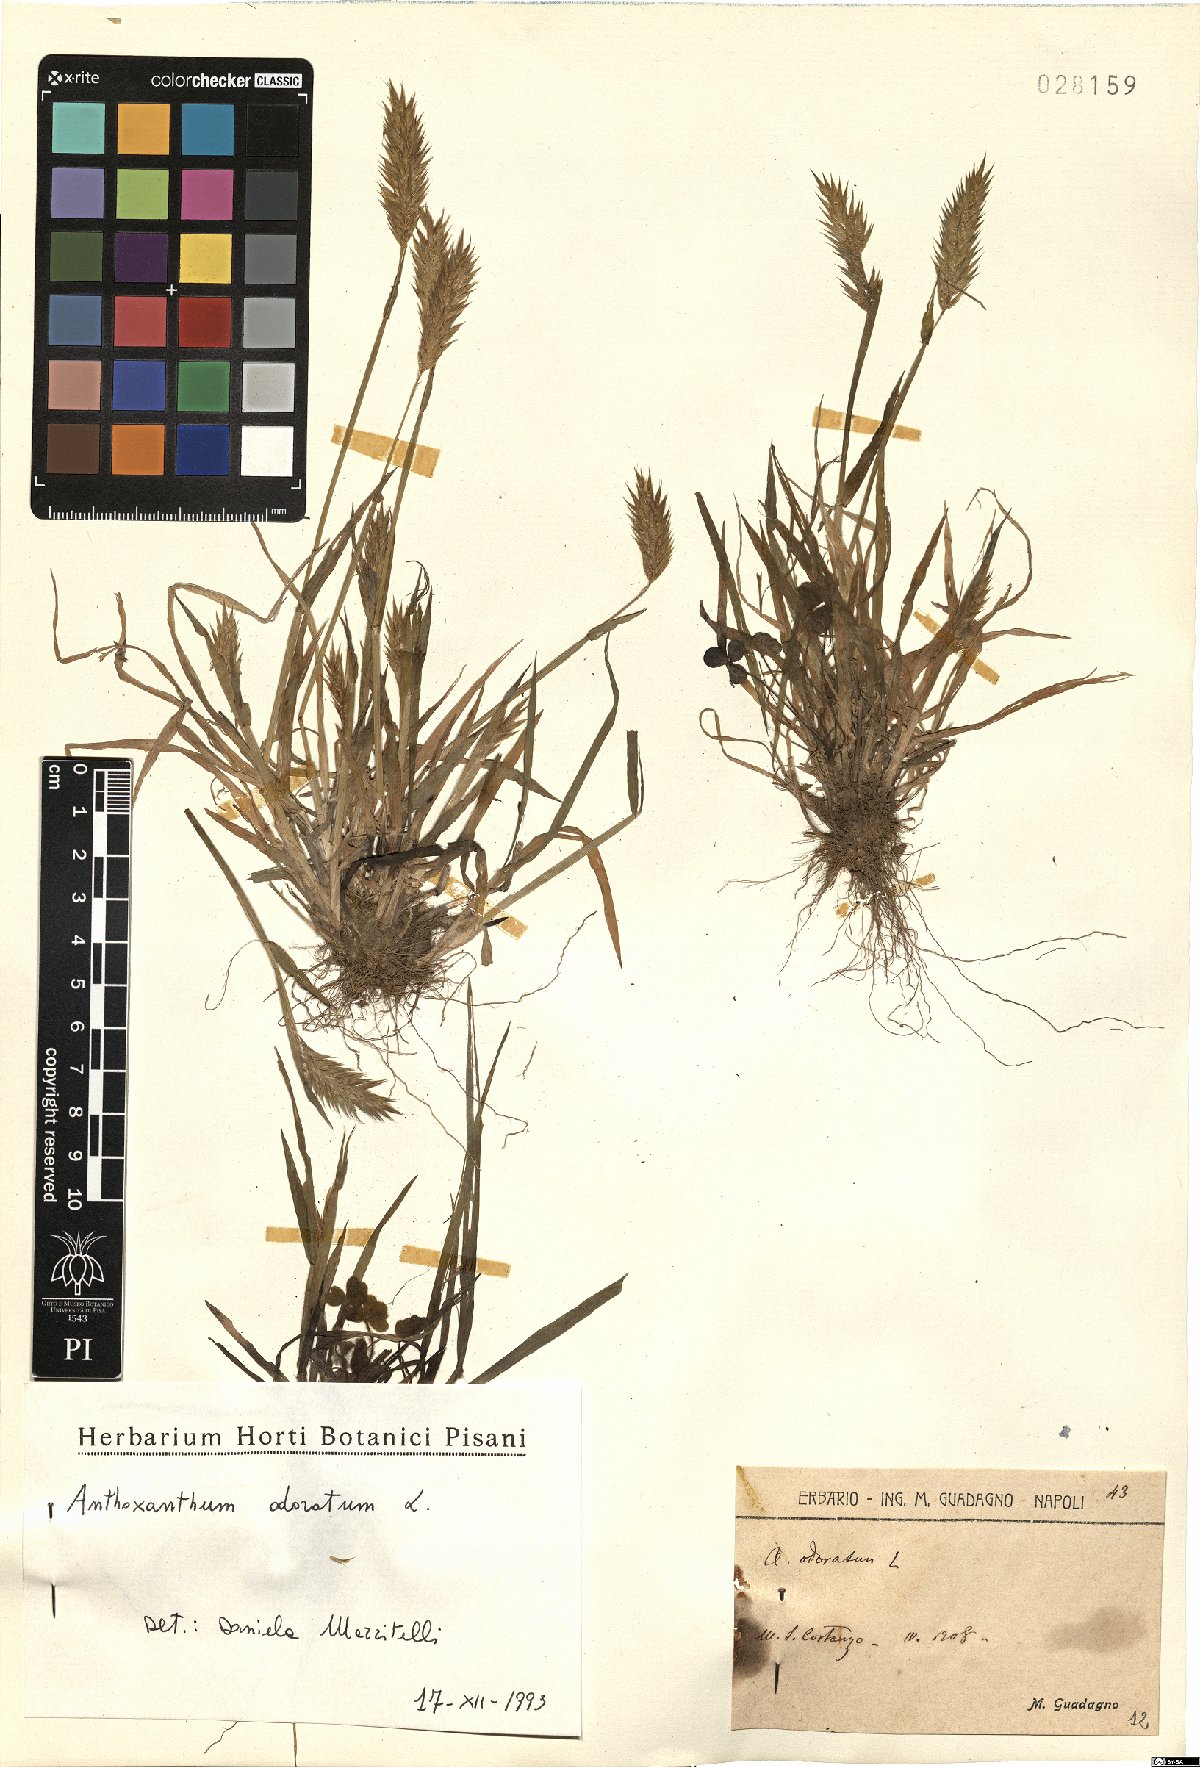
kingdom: Plantae
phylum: Tracheophyta
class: Liliopsida
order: Poales
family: Poaceae
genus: Anthoxanthum
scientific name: Anthoxanthum odoratum
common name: Sweet vernalgrass
